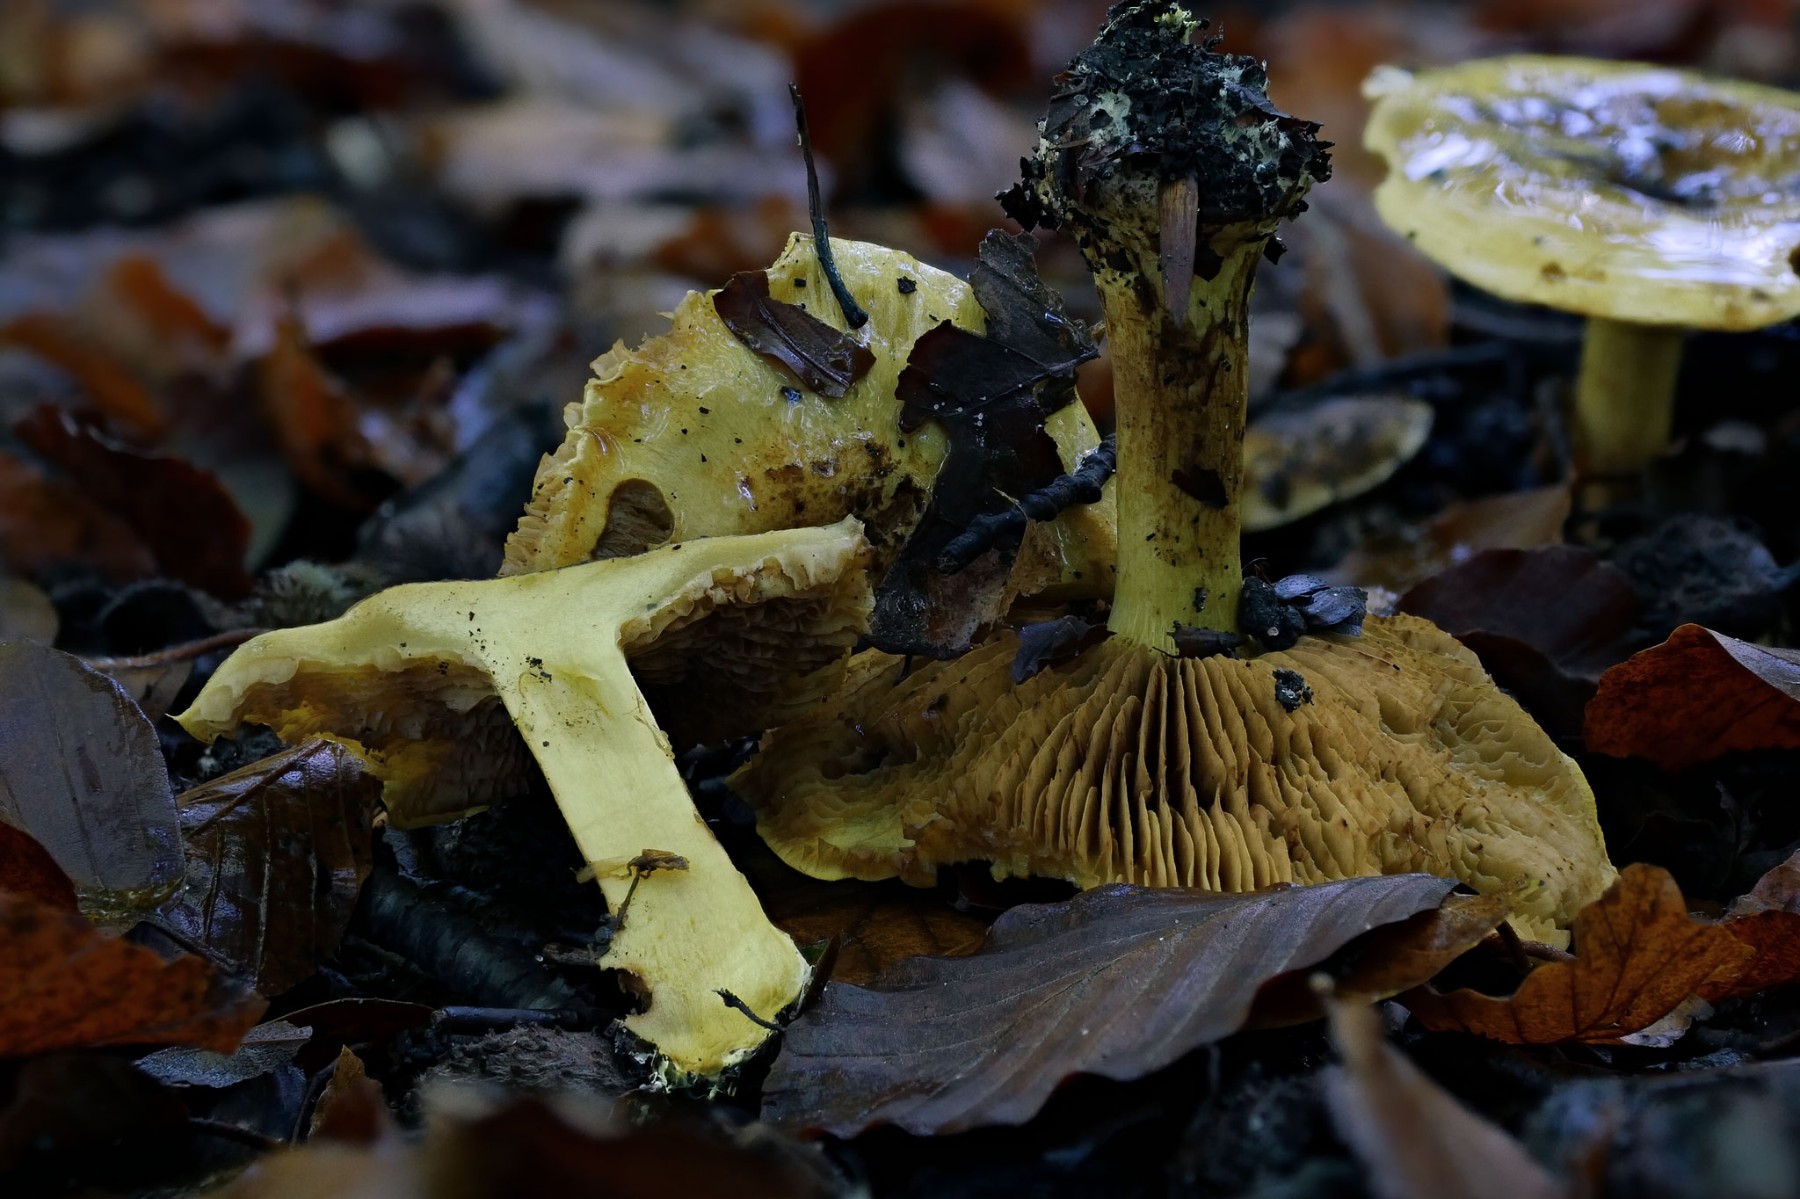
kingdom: Fungi
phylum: Basidiomycota
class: Agaricomycetes
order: Agaricales
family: Cortinariaceae
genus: Calonarius
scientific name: Calonarius citrinus
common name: citrongul slørhat
